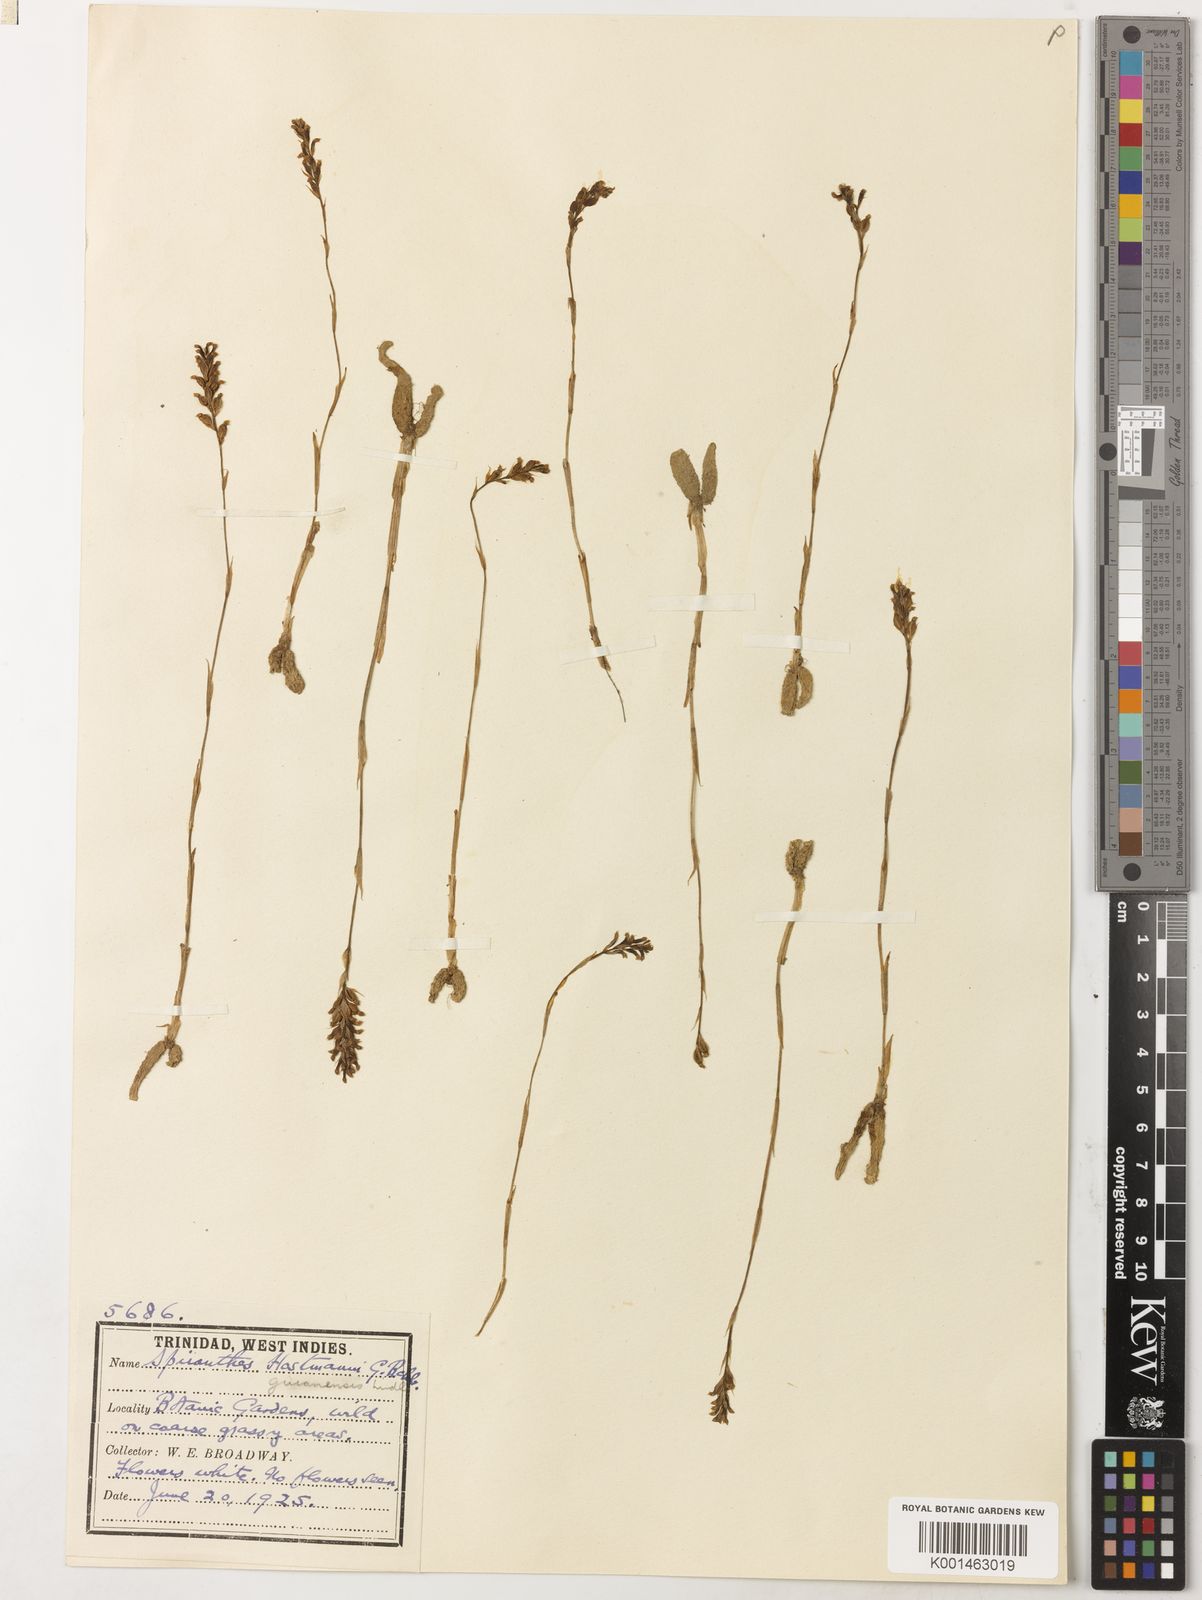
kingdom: Plantae
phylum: Tracheophyta
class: Liliopsida
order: Asparagales
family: Orchidaceae
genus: Brachystele
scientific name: Brachystele guayanensis
